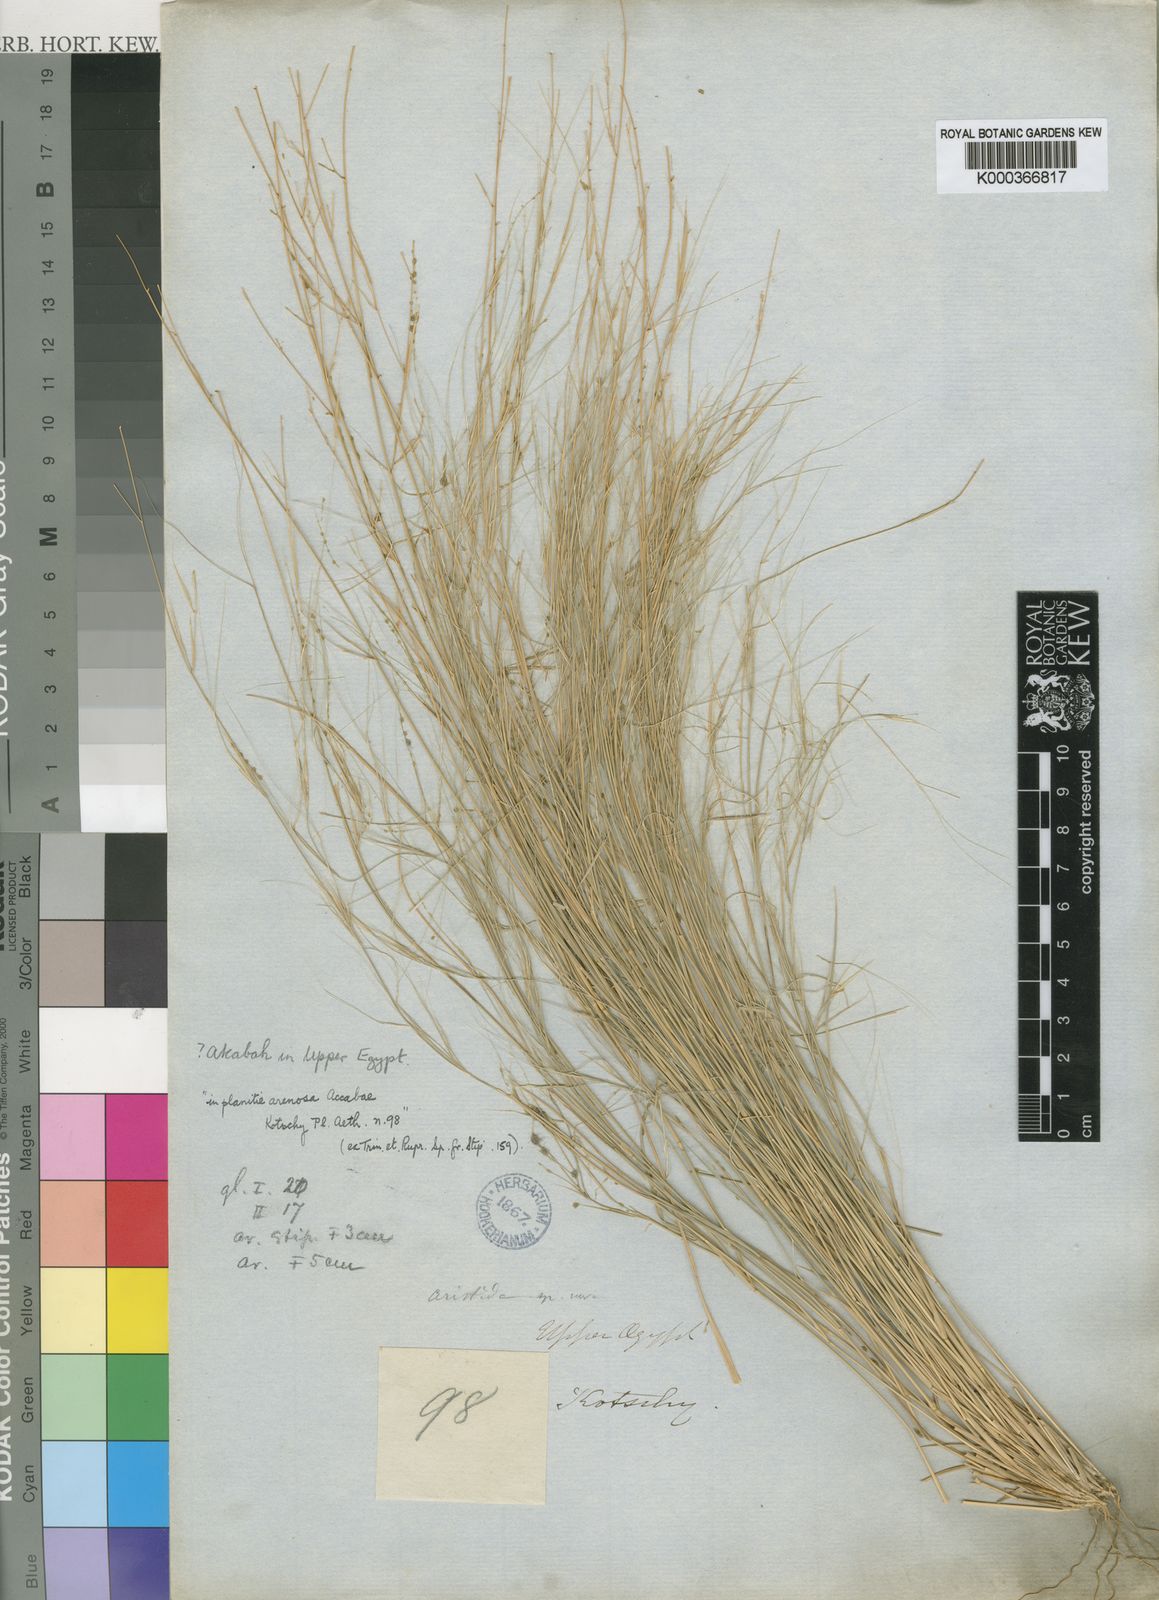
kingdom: Plantae
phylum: Tracheophyta
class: Liliopsida
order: Poales
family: Poaceae
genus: Aristida
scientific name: Aristida funiculata
